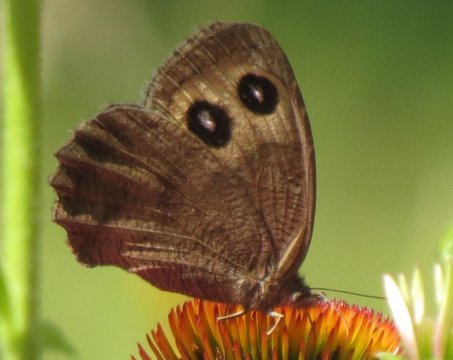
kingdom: Animalia
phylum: Arthropoda
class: Insecta
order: Lepidoptera
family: Nymphalidae
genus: Cercyonis
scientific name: Cercyonis pegala
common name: Common Wood-Nymph
